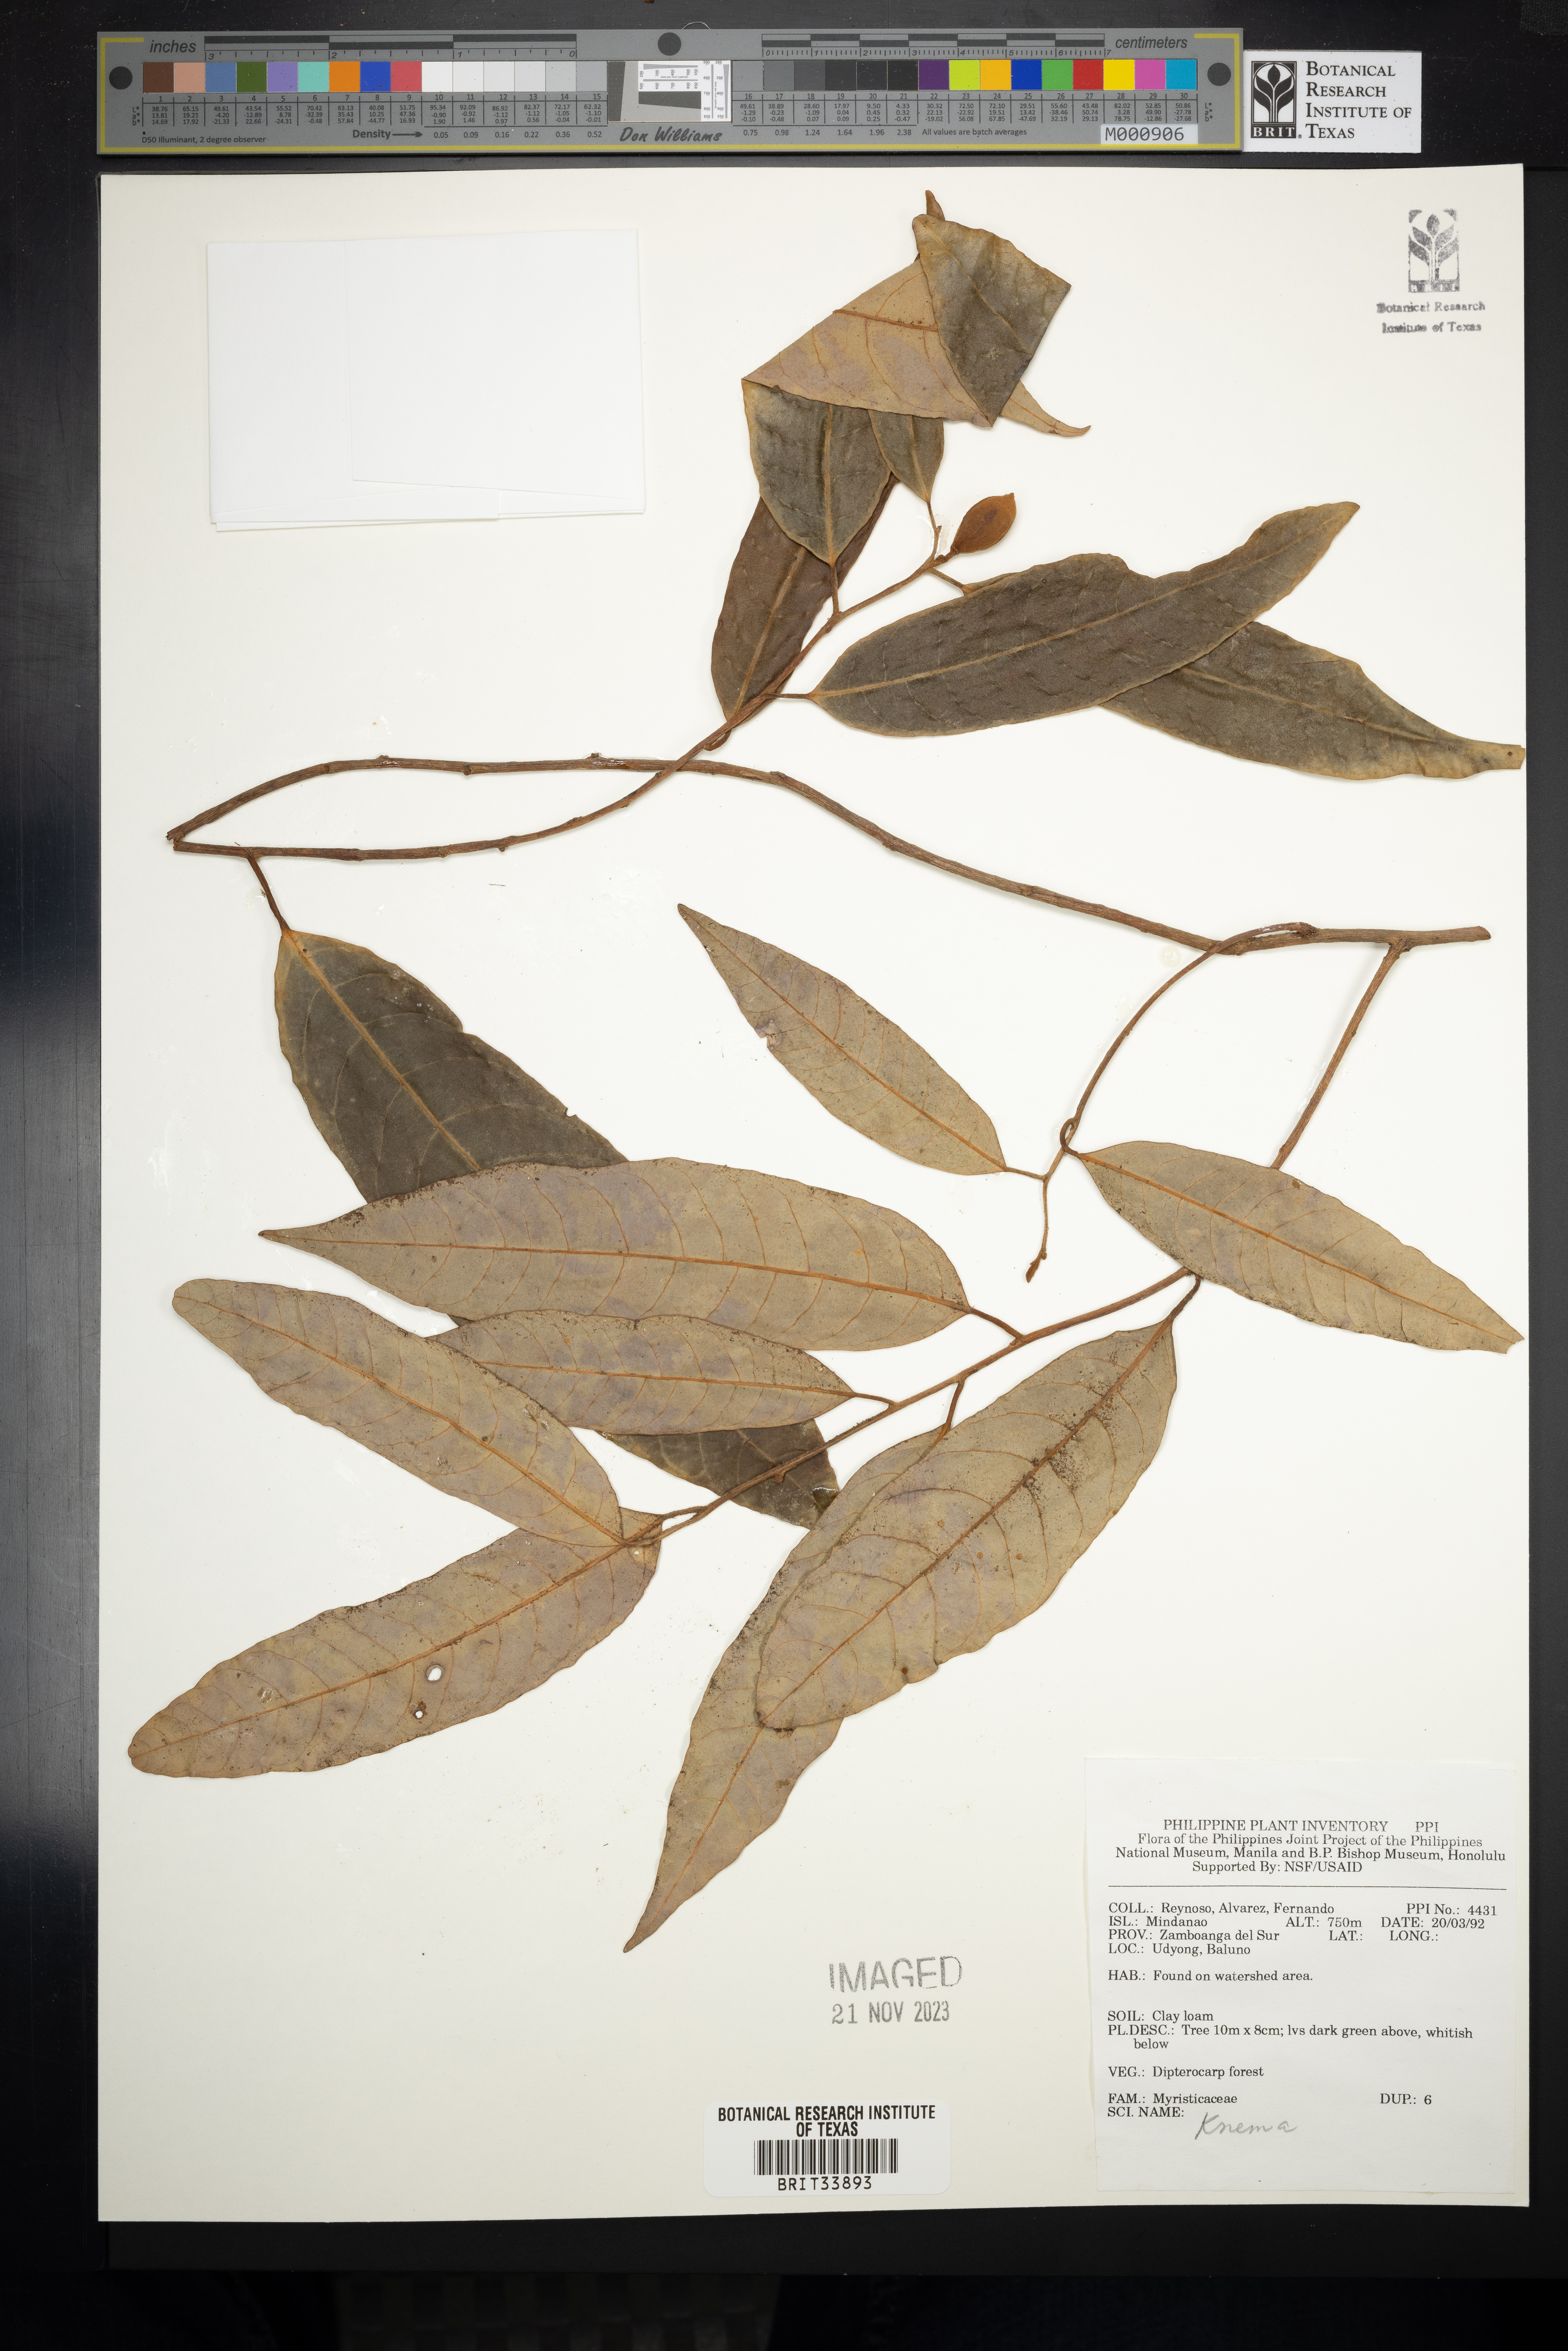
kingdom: Plantae
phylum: Tracheophyta
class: Magnoliopsida
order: Magnoliales
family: Myristicaceae
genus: Knema
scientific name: Knema
